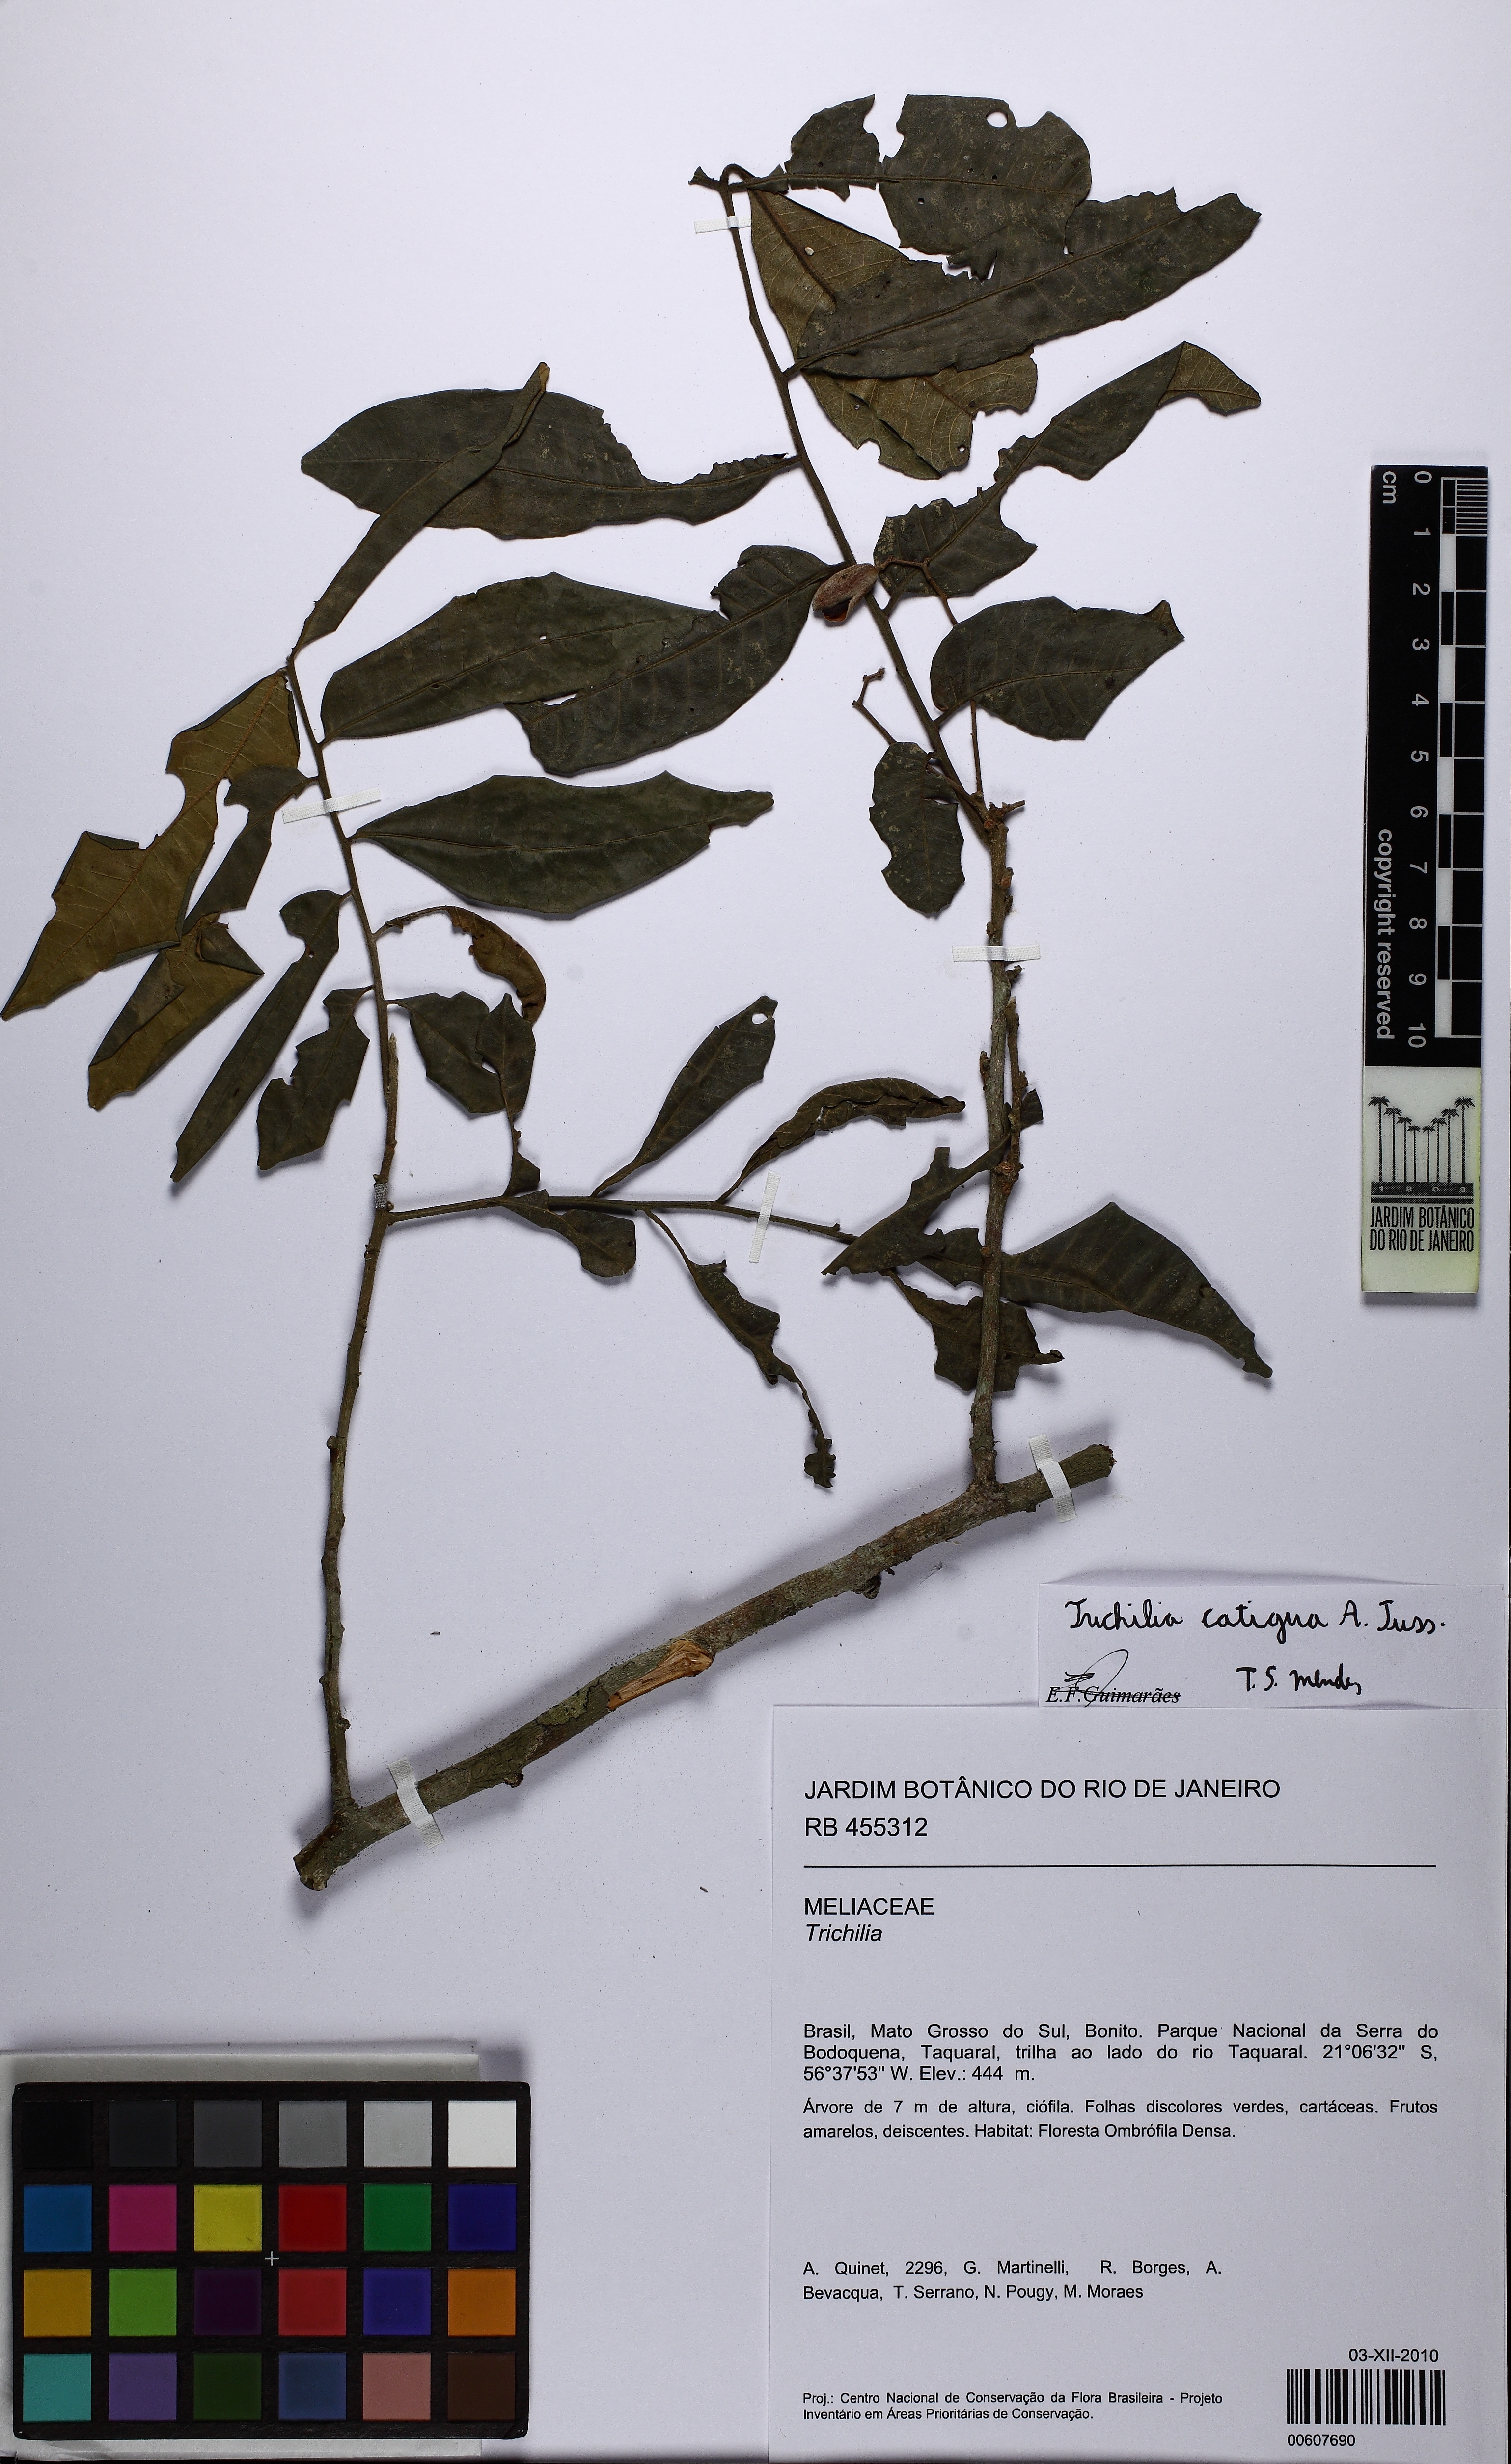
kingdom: Plantae
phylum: Tracheophyta
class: Magnoliopsida
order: Sapindales
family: Meliaceae
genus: Trichilia
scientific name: Trichilia catigua
